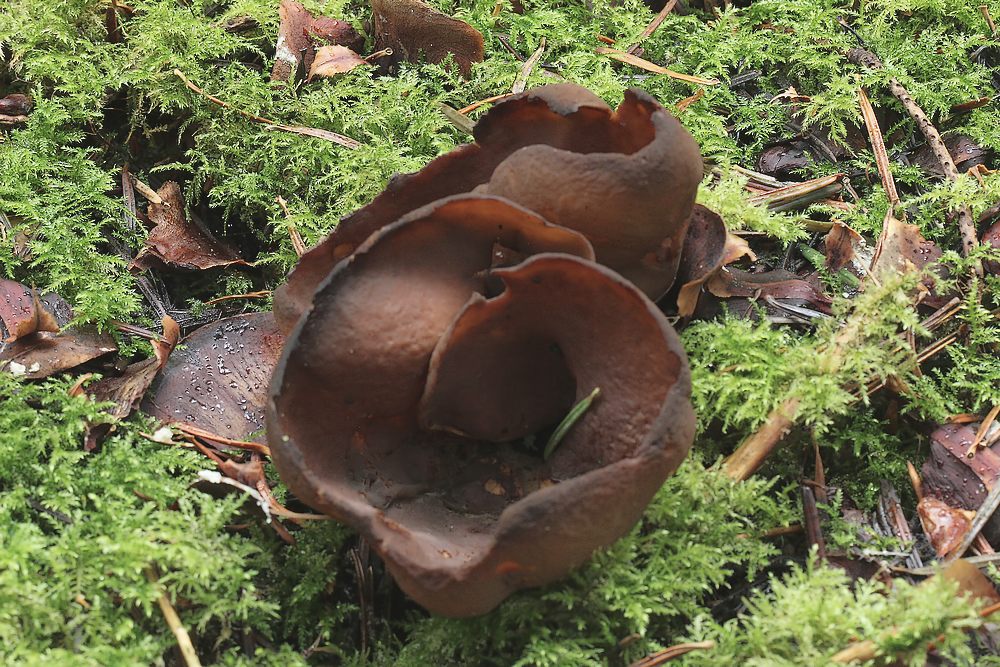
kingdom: Fungi
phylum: Ascomycota
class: Pezizomycetes
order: Pezizales
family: Otideaceae
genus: Otidea
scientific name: Otidea bufonia
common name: brun ørebæger
